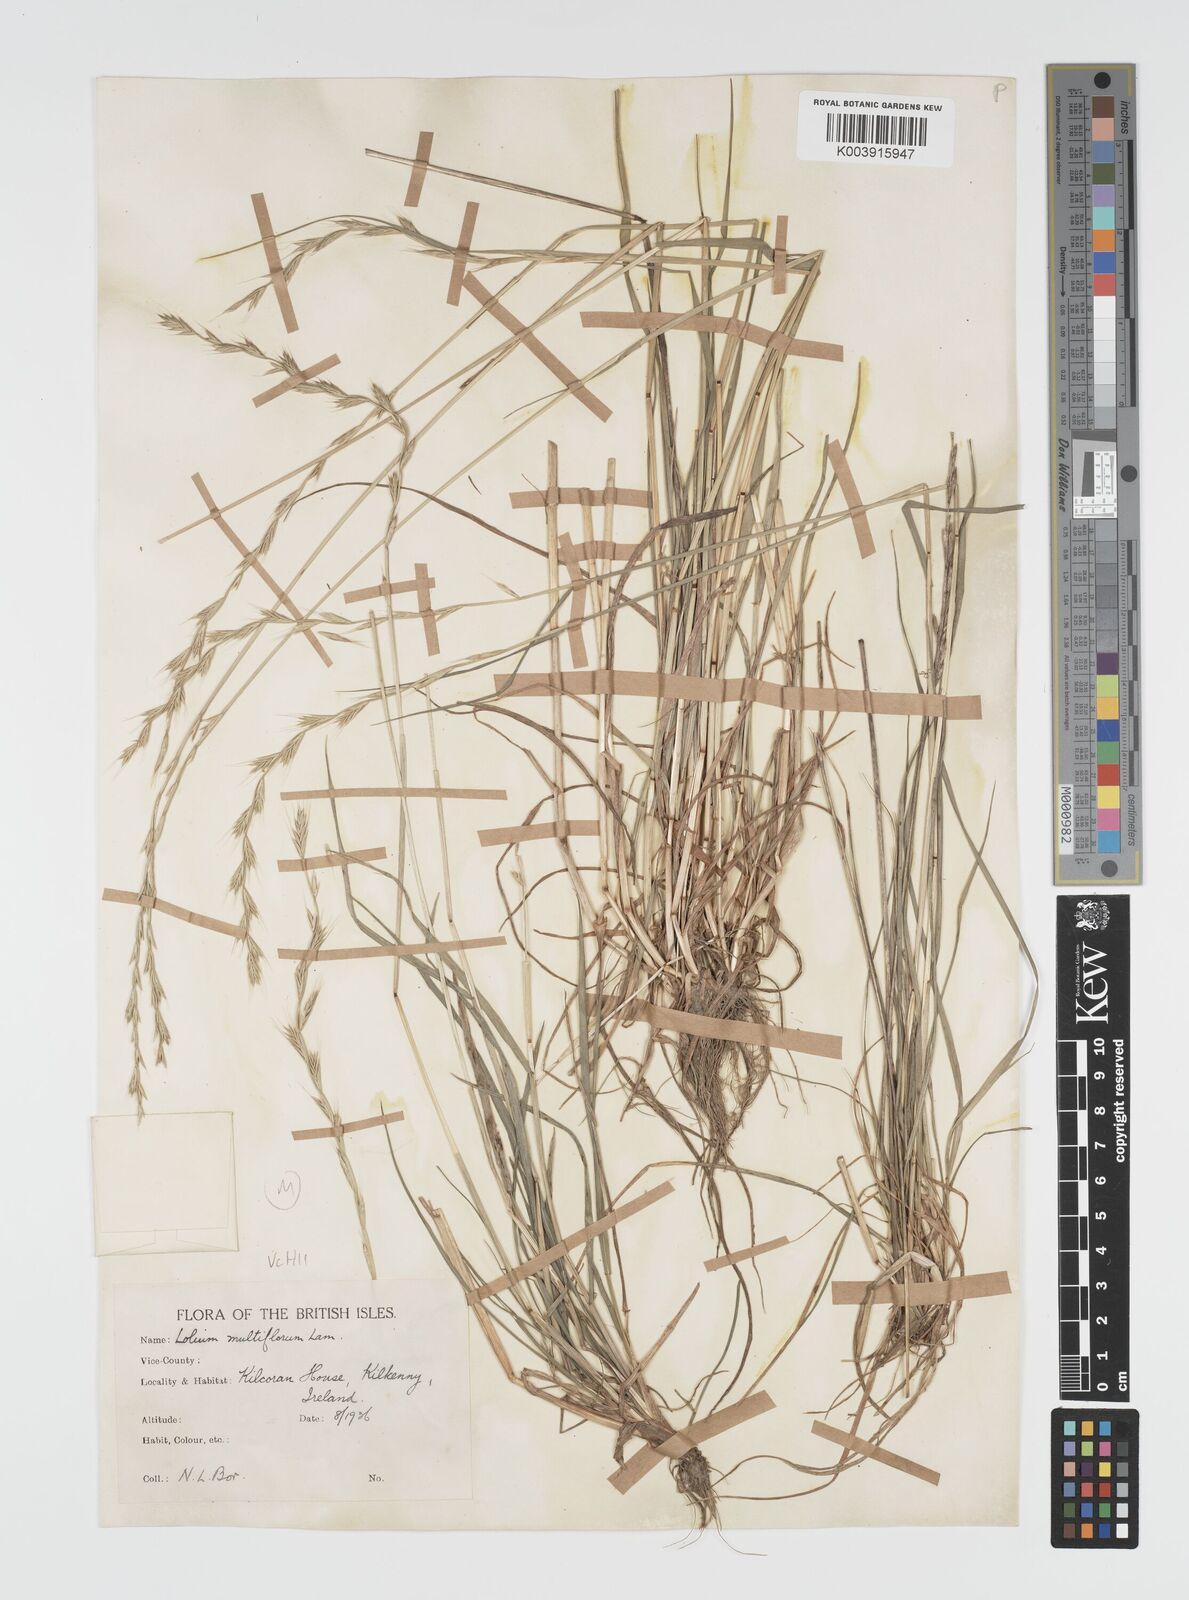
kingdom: Plantae
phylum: Tracheophyta
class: Liliopsida
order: Poales
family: Poaceae
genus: Lolium
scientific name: Lolium
